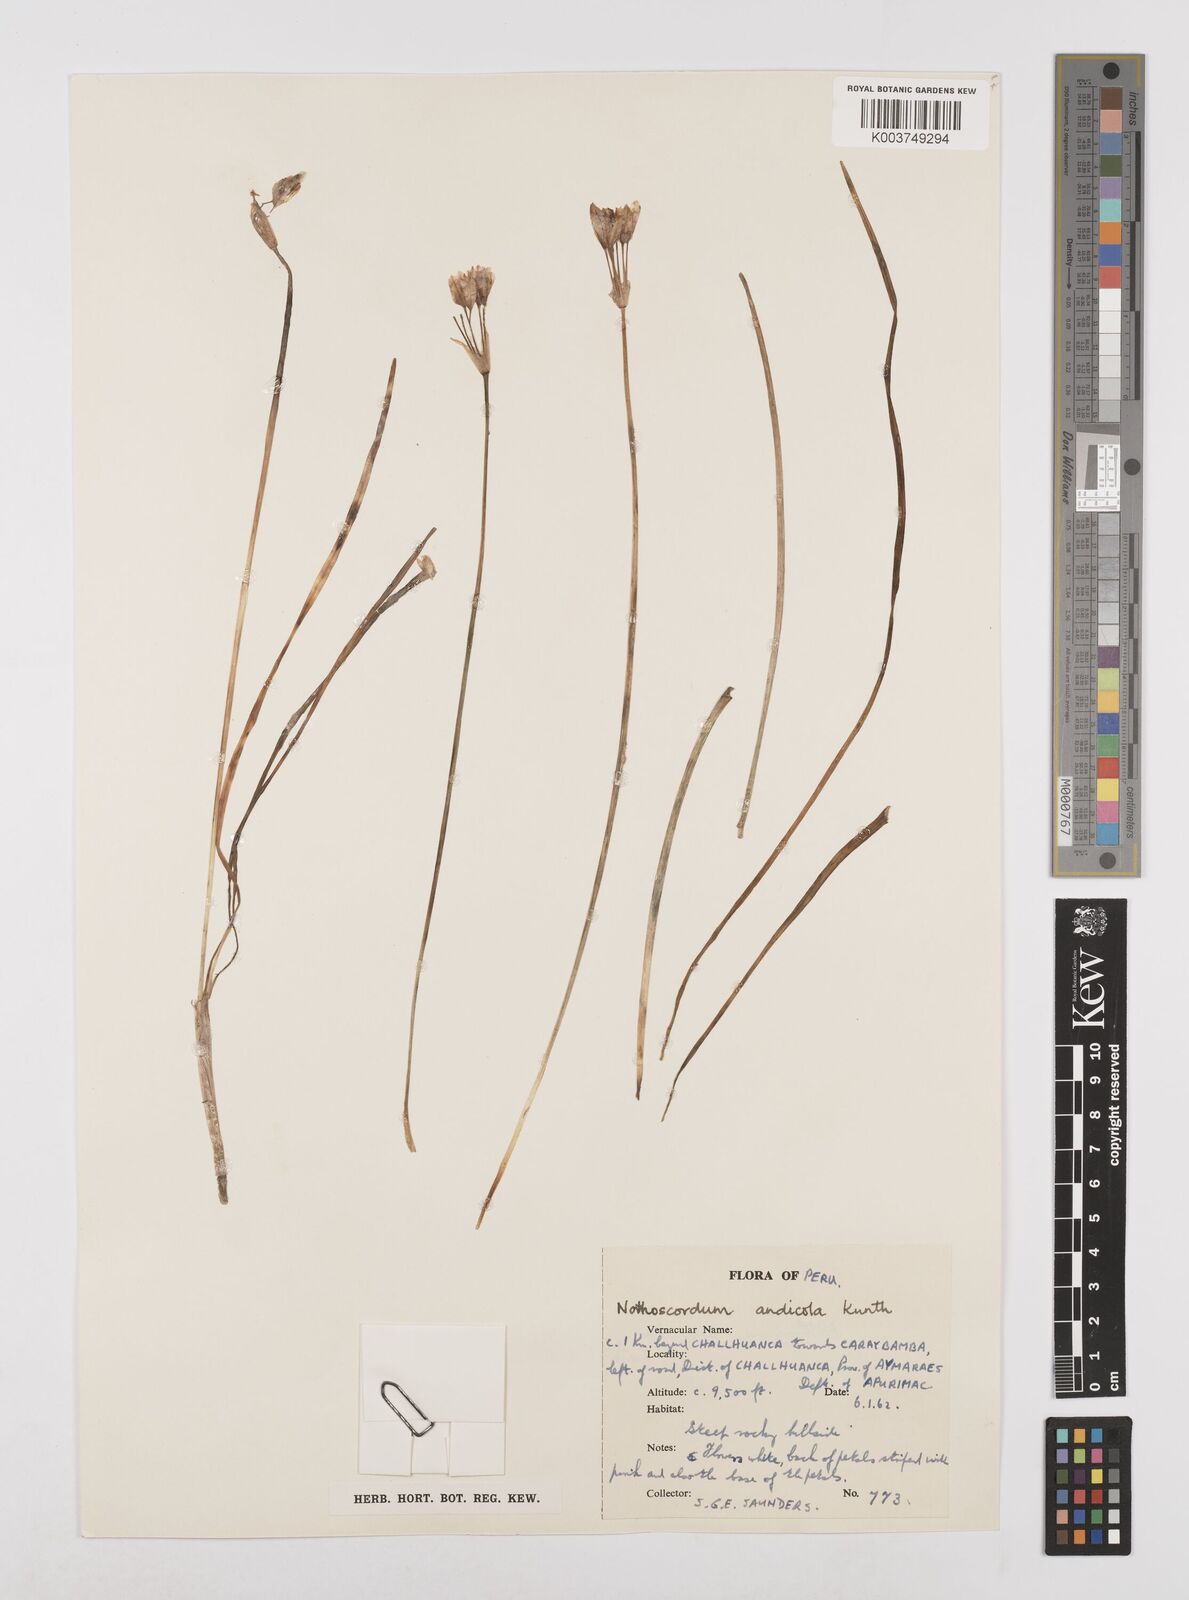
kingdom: Plantae
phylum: Tracheophyta
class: Liliopsida
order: Asparagales
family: Amaryllidaceae
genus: Nothoscordum
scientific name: Nothoscordum andicola
